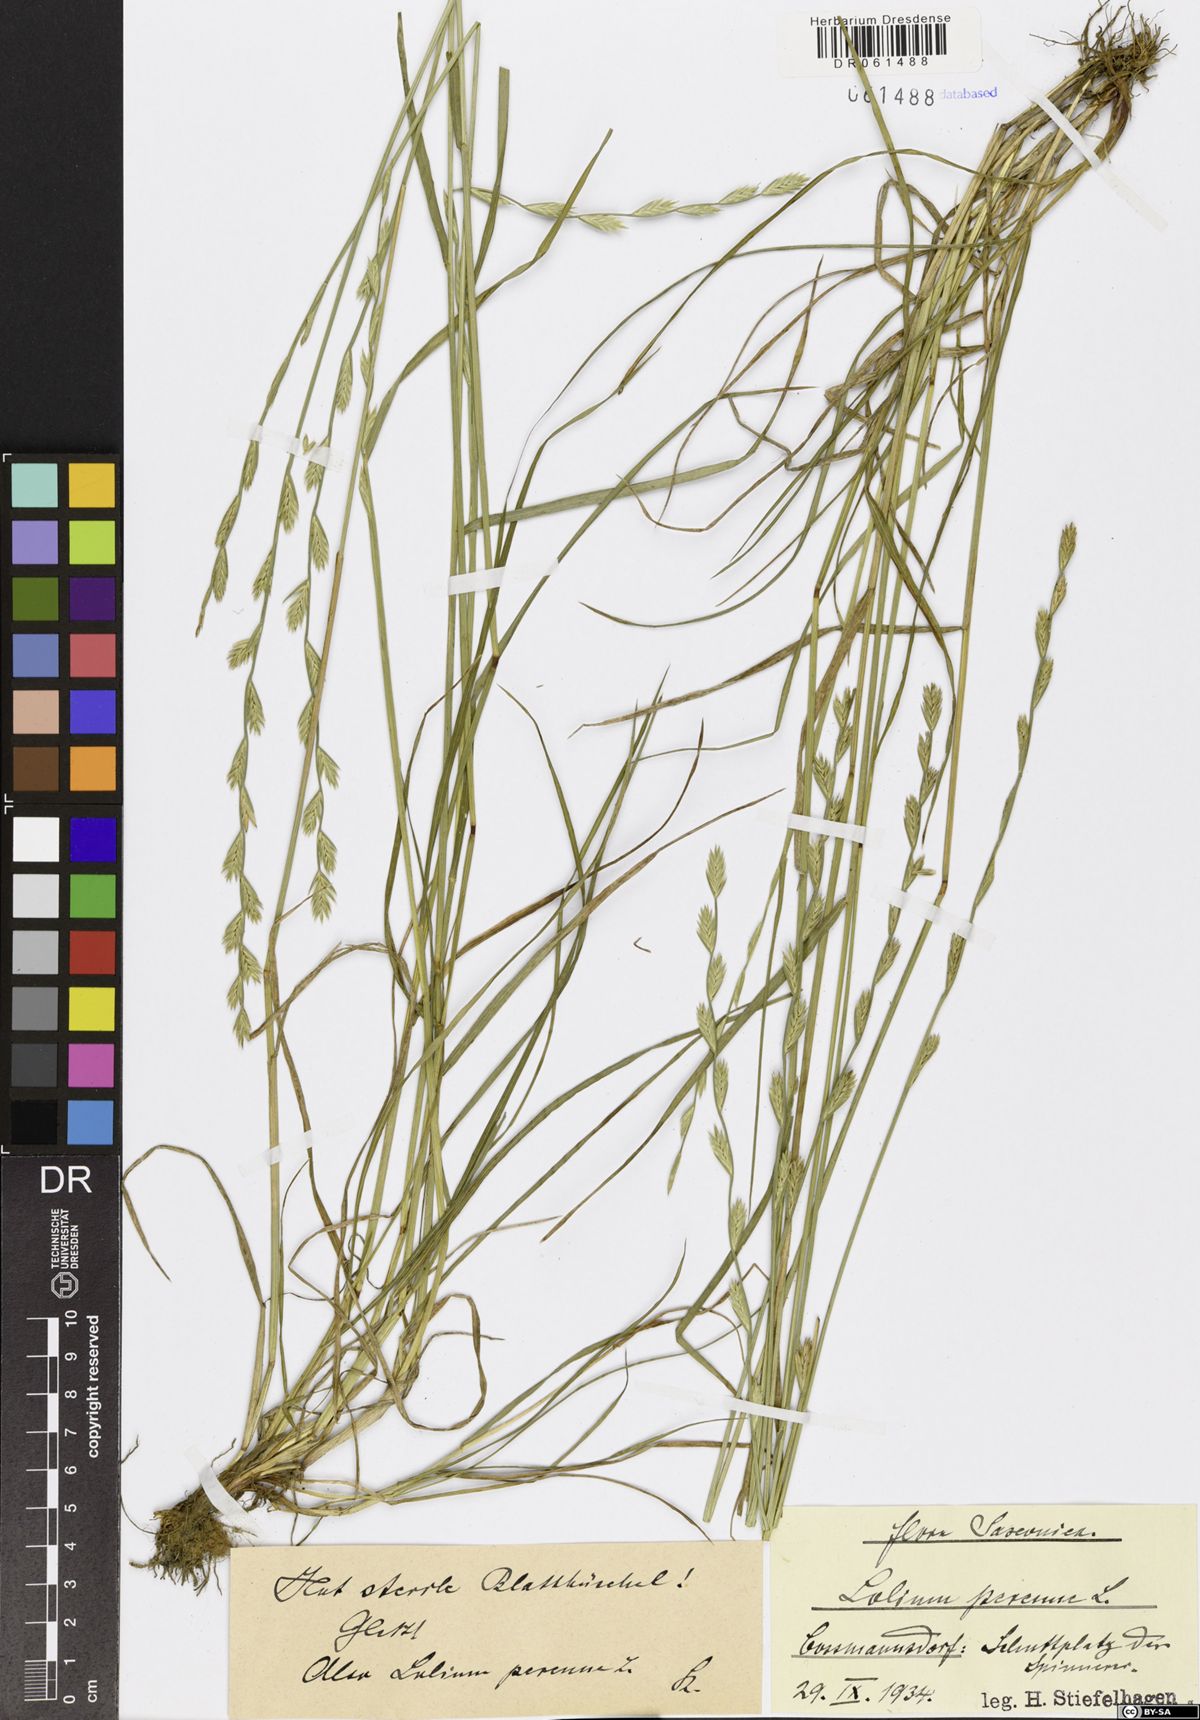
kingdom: Plantae
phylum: Tracheophyta
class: Liliopsida
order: Poales
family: Poaceae
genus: Lolium
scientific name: Lolium perenne
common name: Perennial ryegrass
